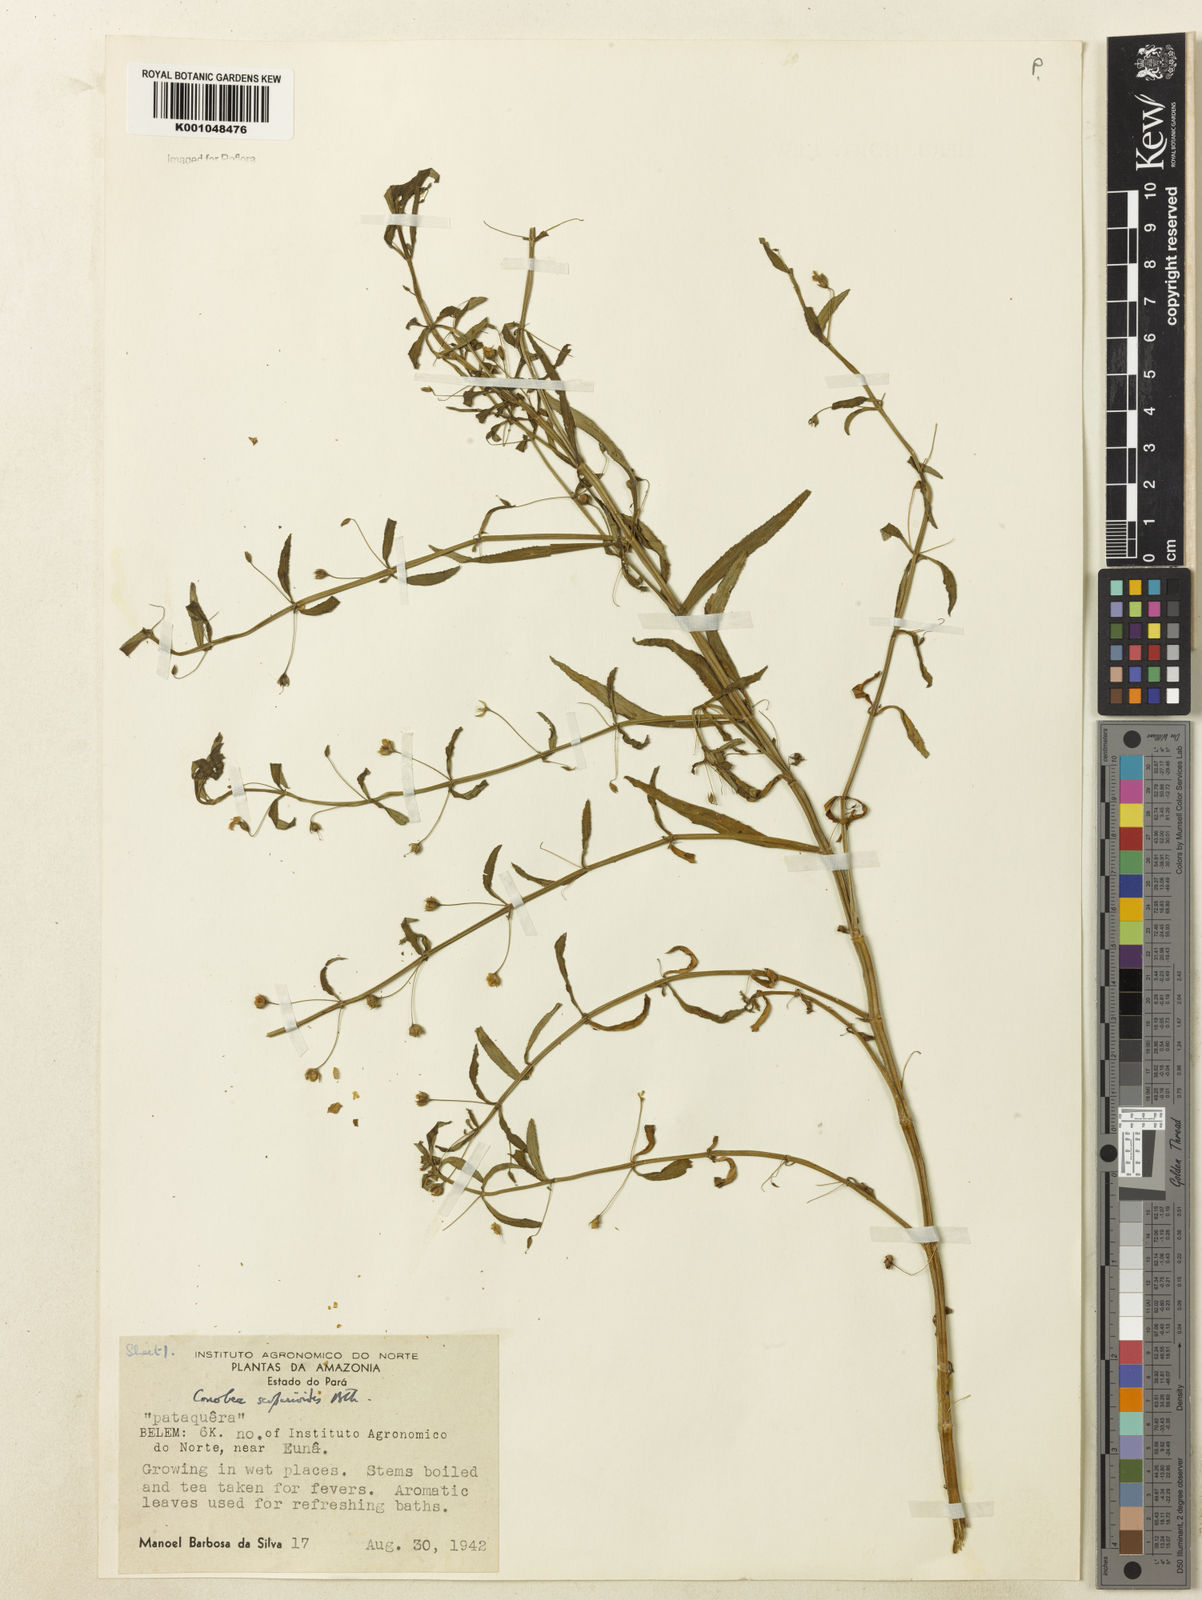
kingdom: Plantae
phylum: Tracheophyta
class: Magnoliopsida
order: Lamiales
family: Plantaginaceae
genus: Conobea
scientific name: Conobea scoparioides
